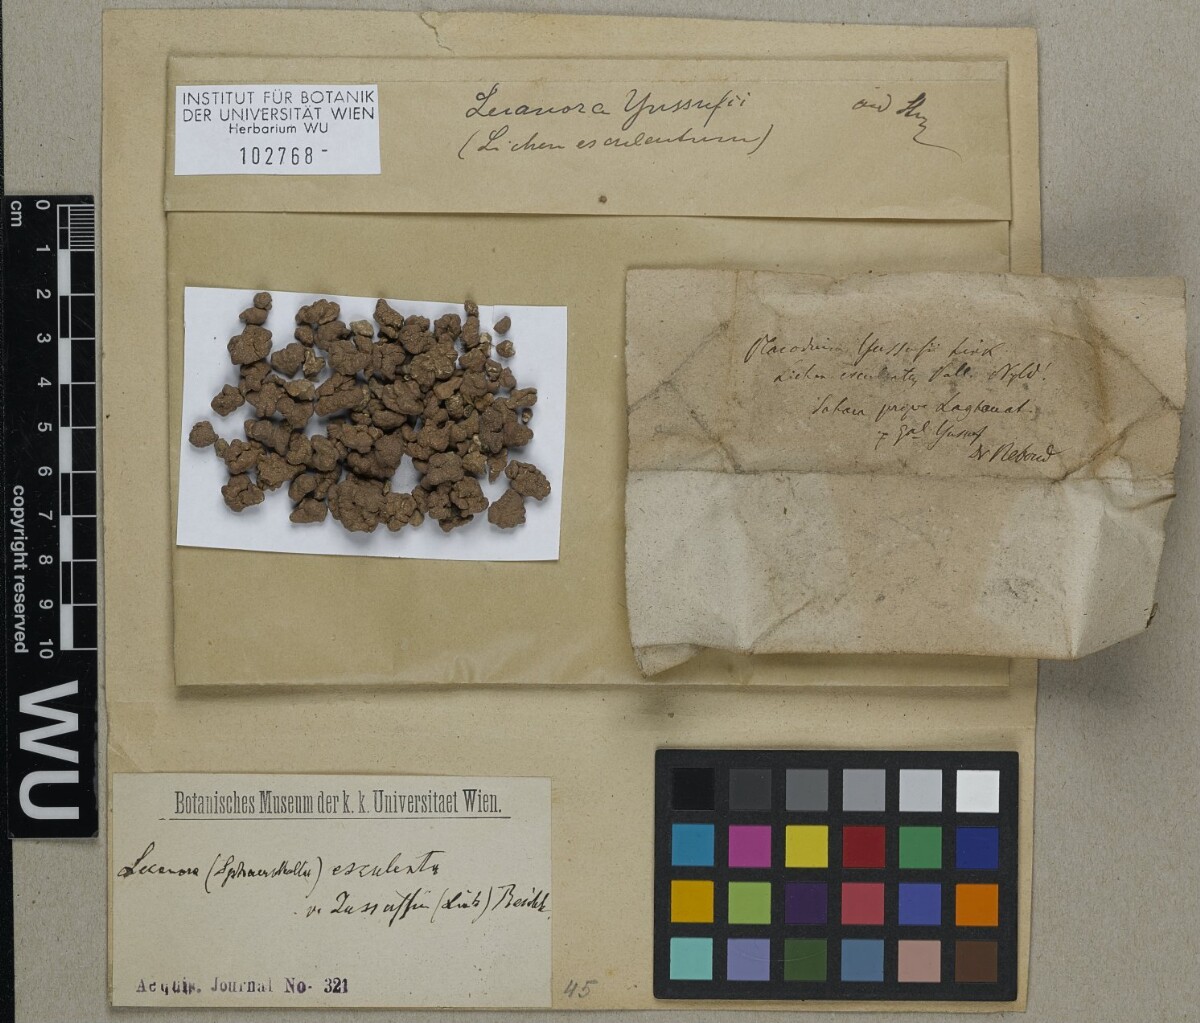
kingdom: Fungi
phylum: Ascomycota
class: Lecanoromycetes
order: Pertusariales
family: Megasporaceae
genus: Circinaria
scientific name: Circinaria esculenta
